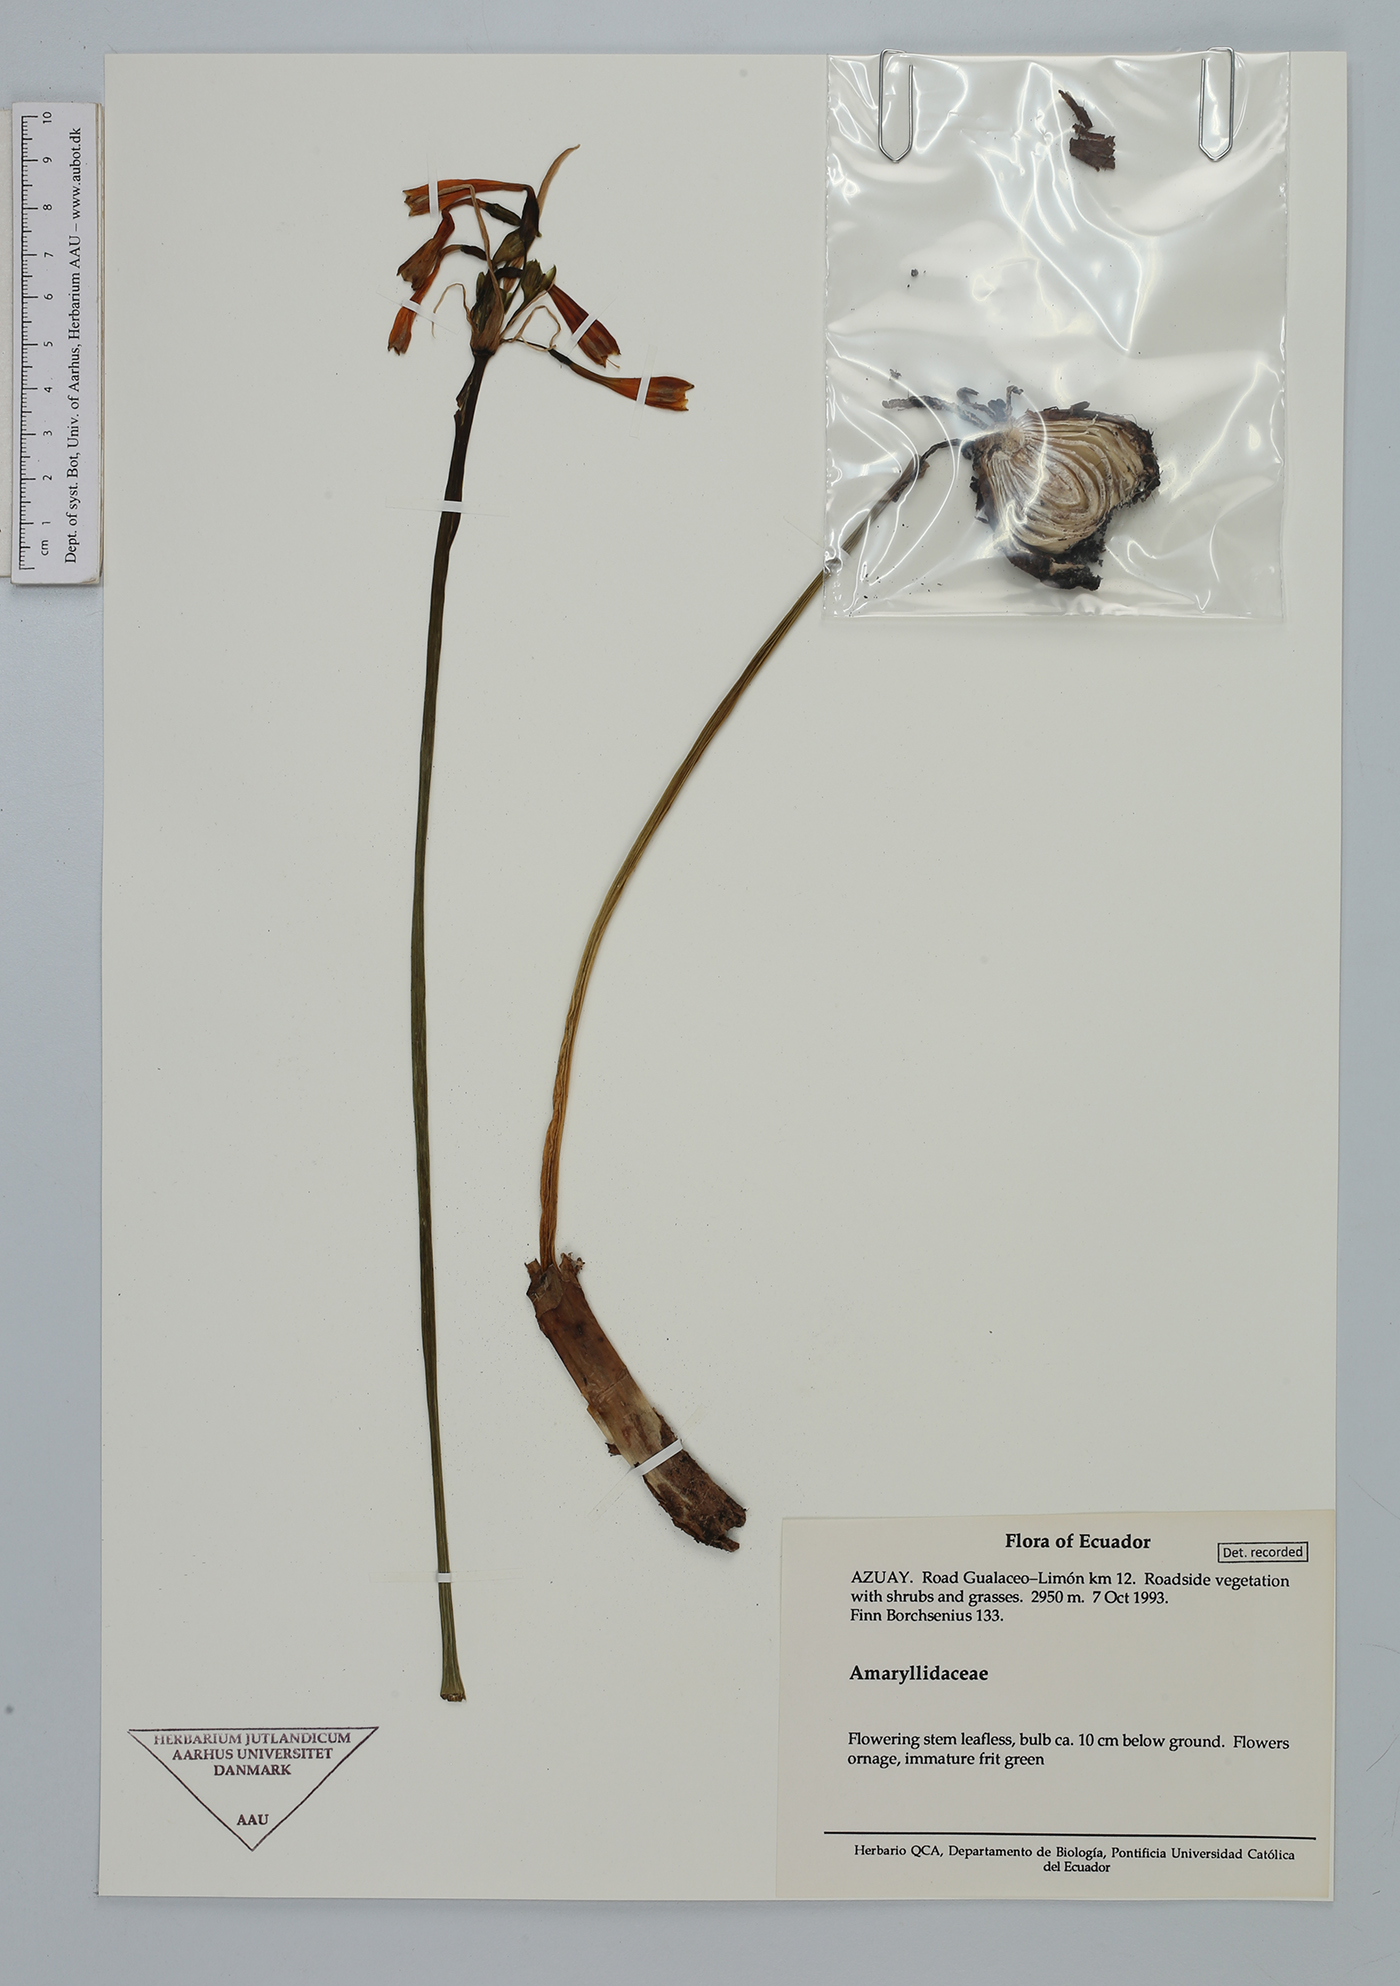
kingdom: Plantae
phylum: Tracheophyta
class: Liliopsida
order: Asparagales
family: Amaryllidaceae
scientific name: Amaryllidaceae
